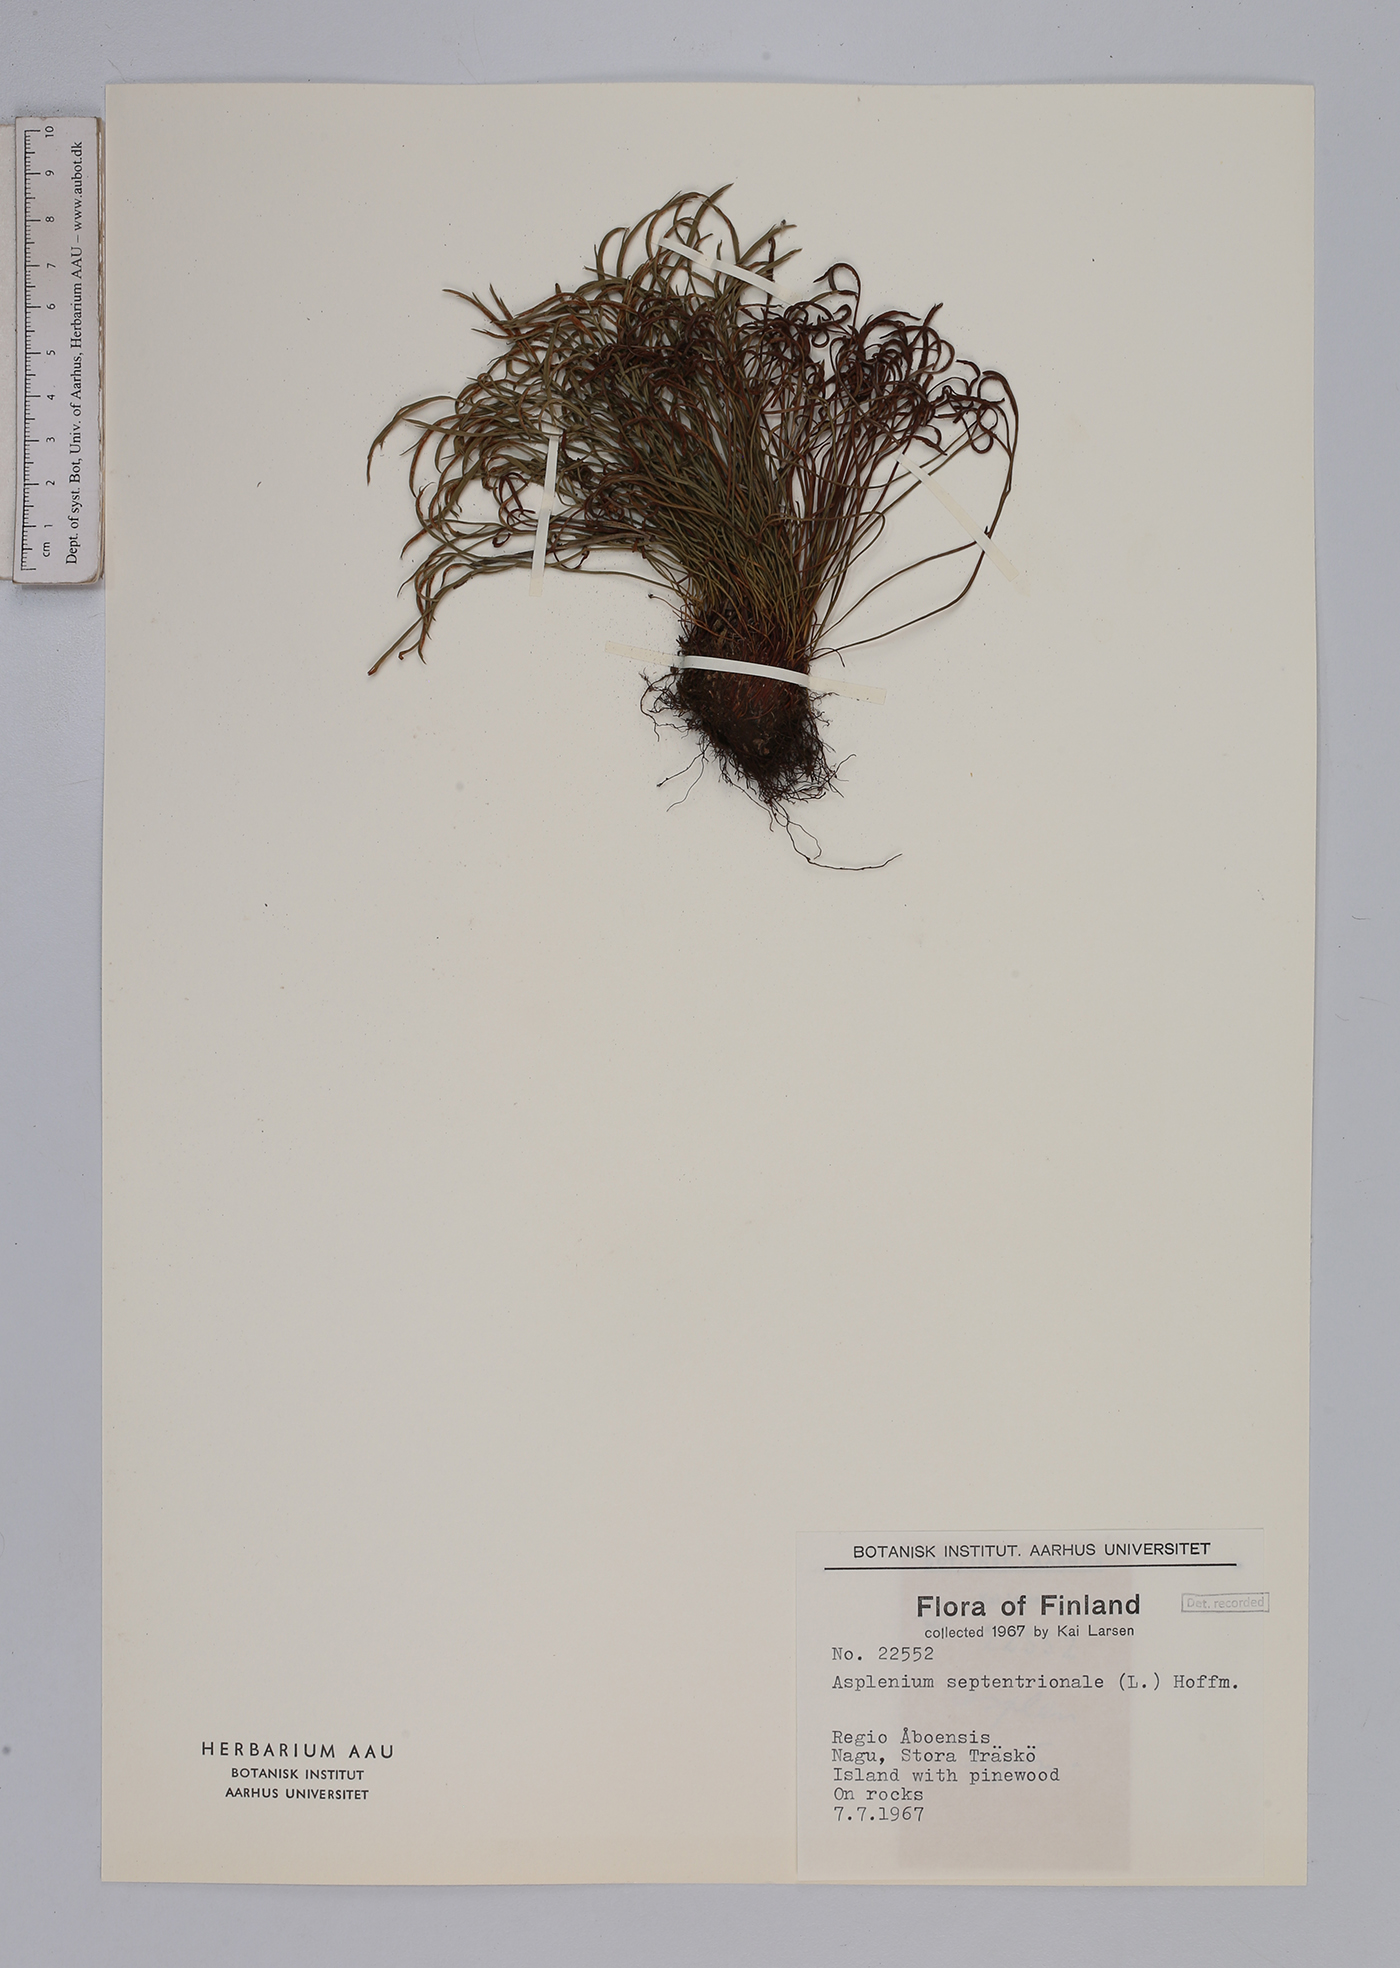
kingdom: Plantae
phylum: Tracheophyta
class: Polypodiopsida
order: Polypodiales
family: Aspleniaceae
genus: Asplenium
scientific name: Asplenium septentrionale
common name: Forked spleenwort
